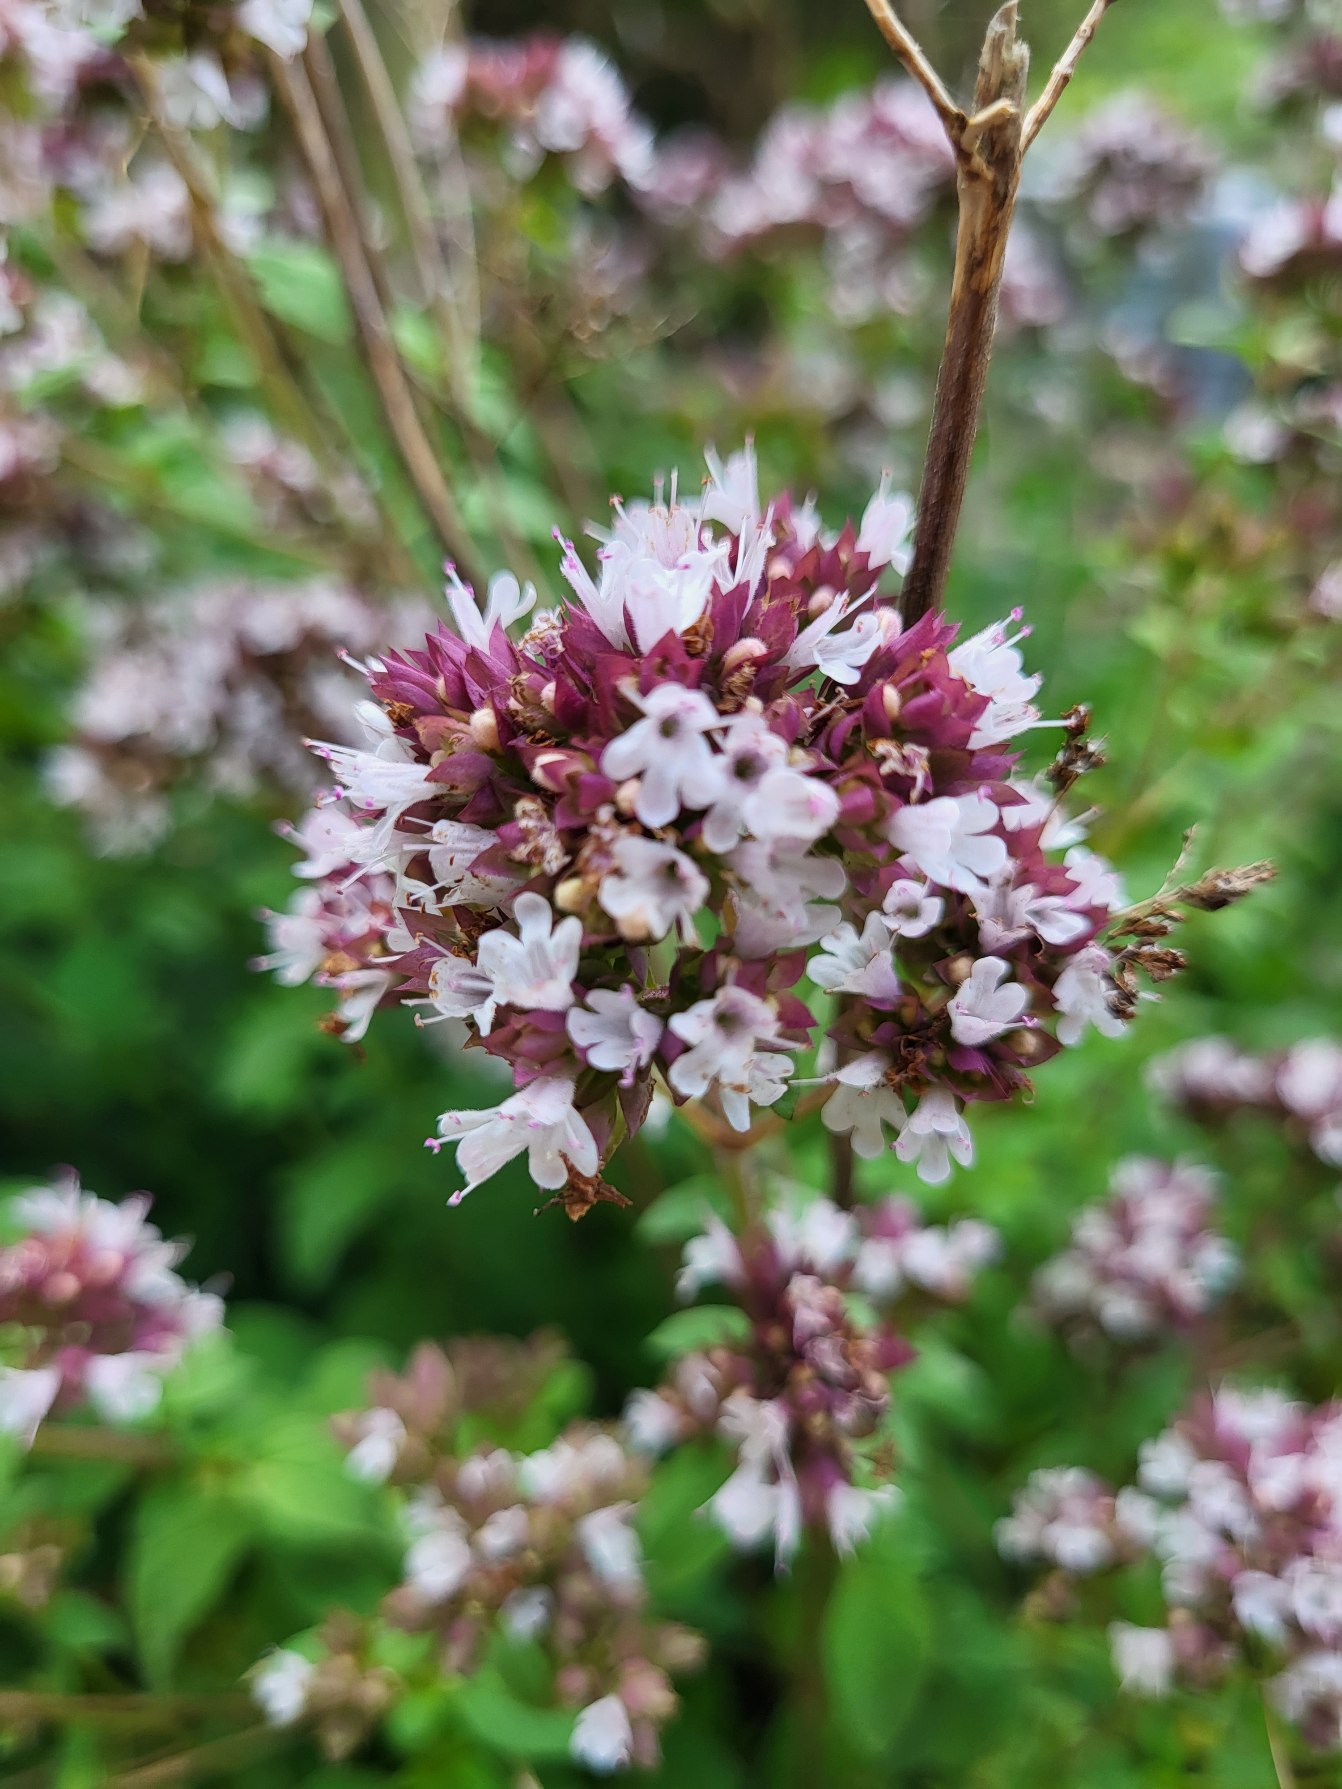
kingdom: Plantae
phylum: Tracheophyta
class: Magnoliopsida
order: Lamiales
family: Lamiaceae
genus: Origanum
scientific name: Origanum vulgare
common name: Merian
